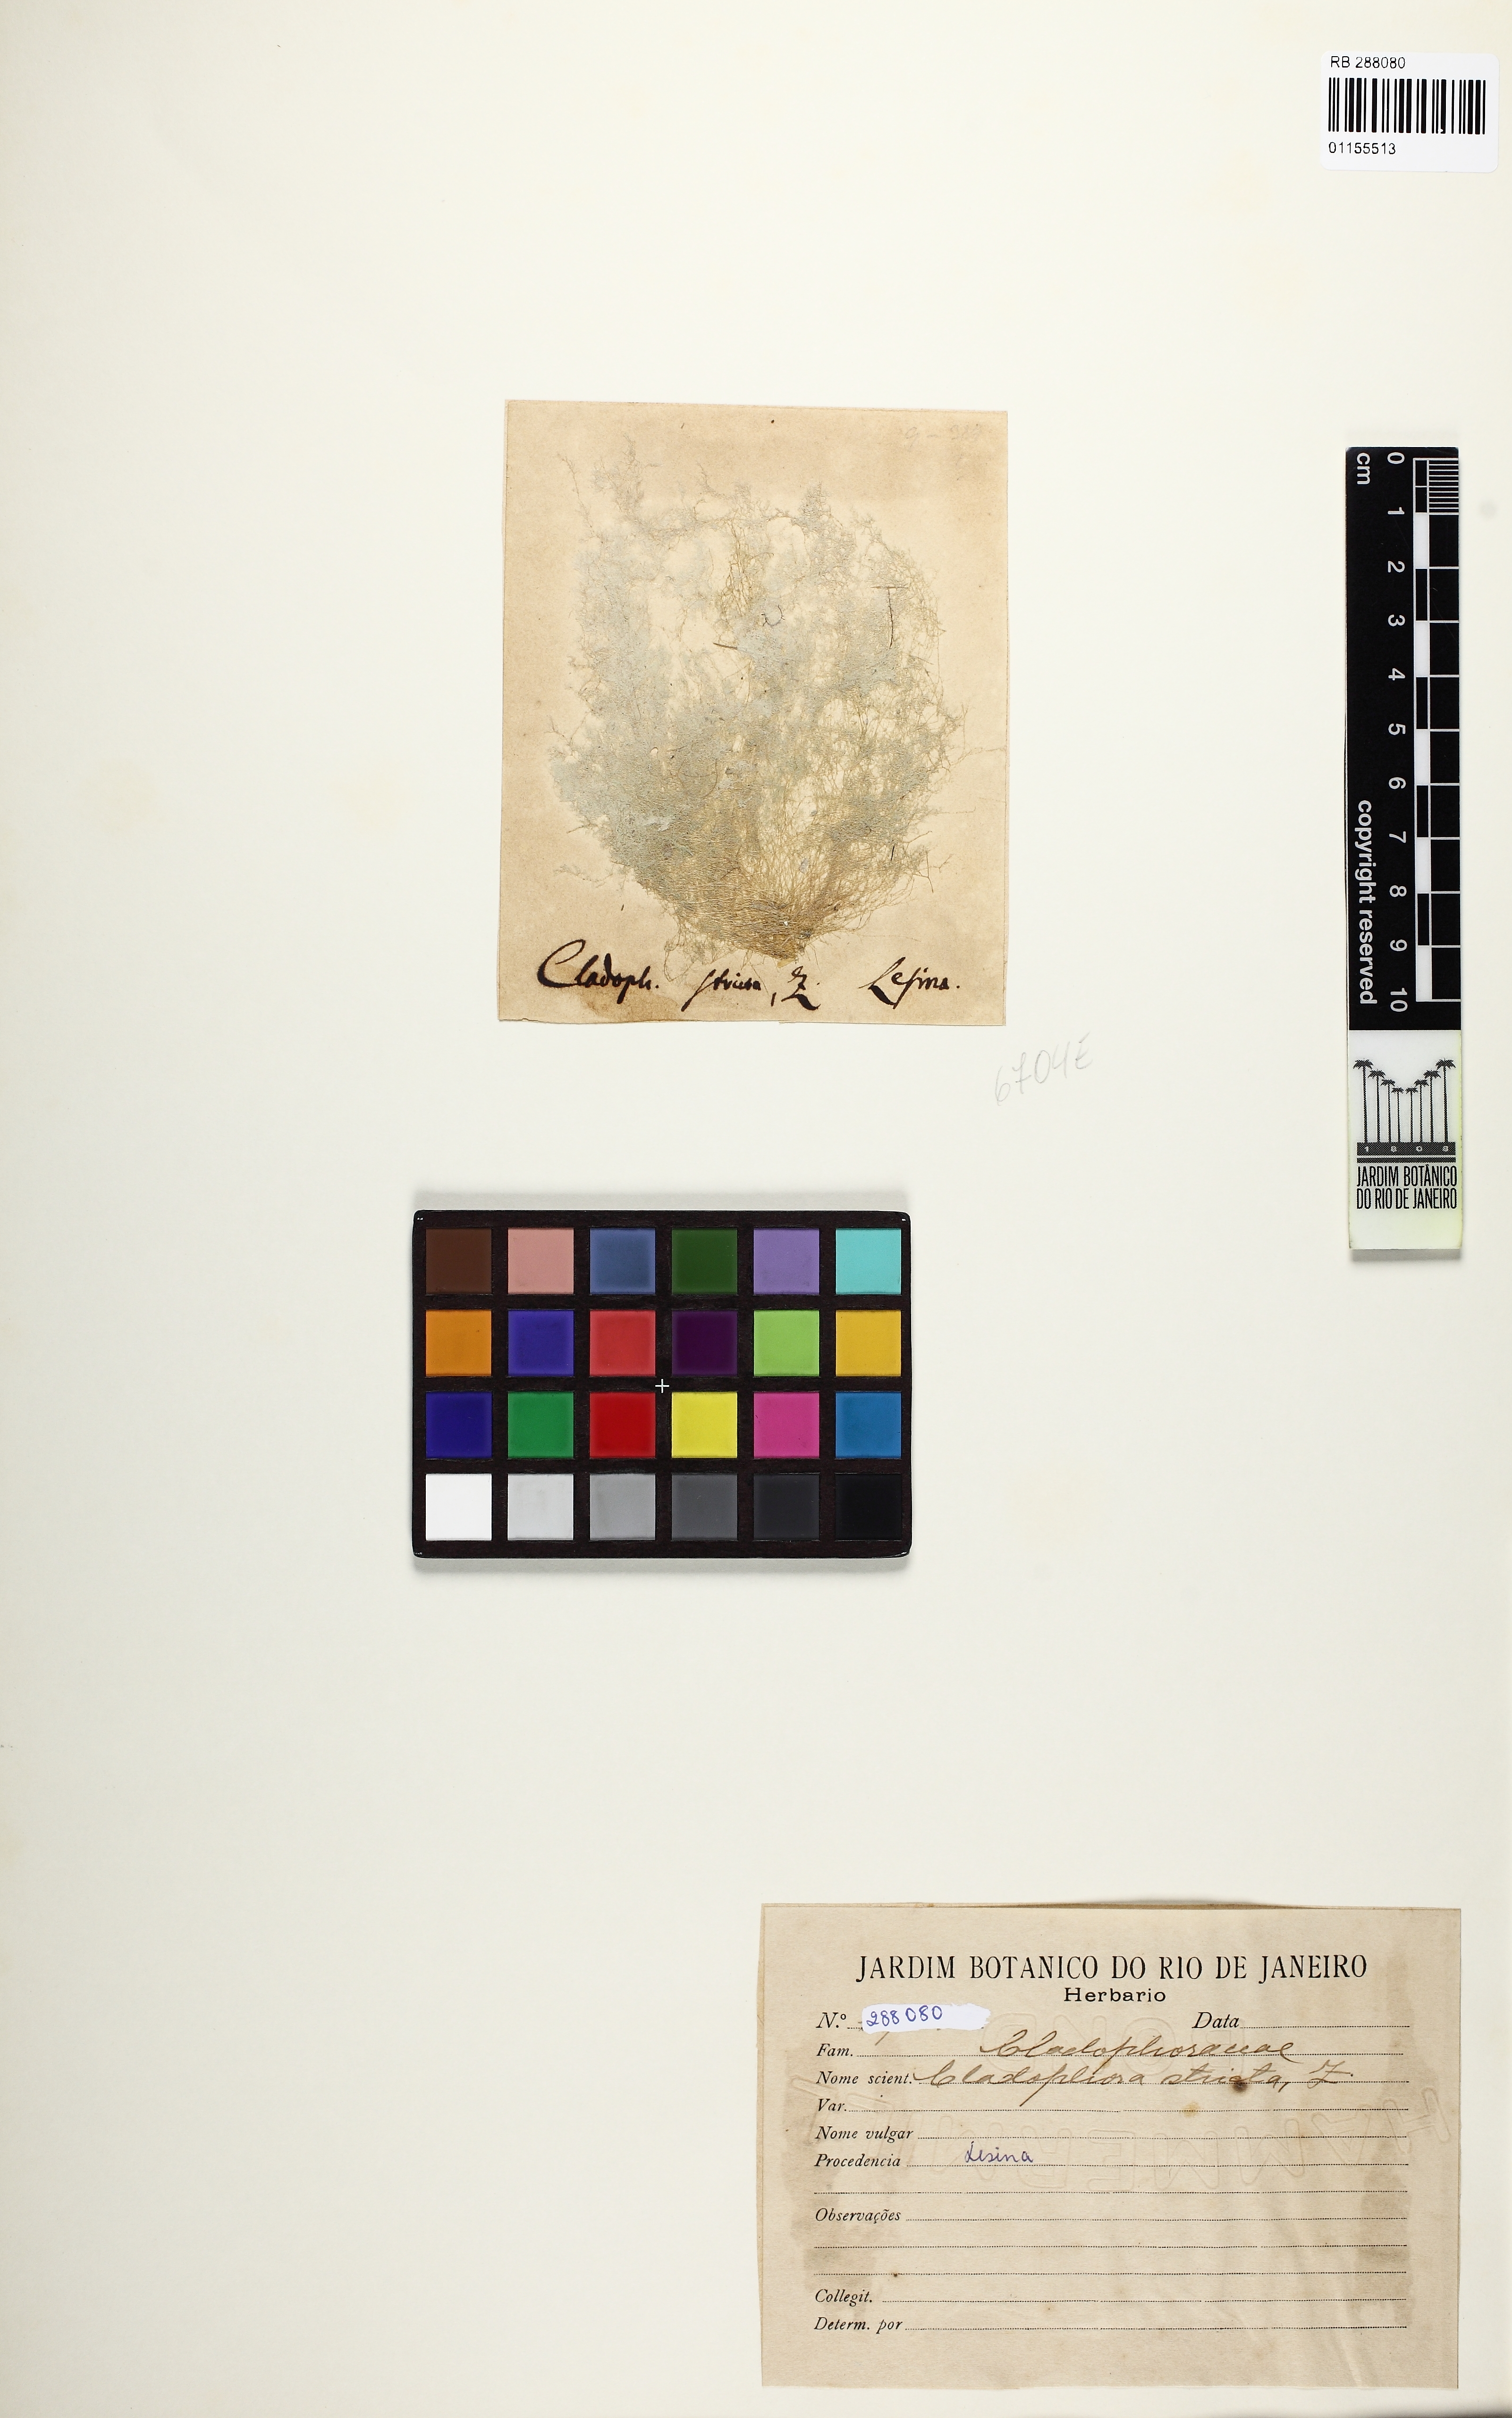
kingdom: Plantae
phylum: Chlorophyta
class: Ulvophyceae
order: Cladophorales
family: Cladophoraceae
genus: Cladophora
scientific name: Cladophora sericea
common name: Graceful green hair
